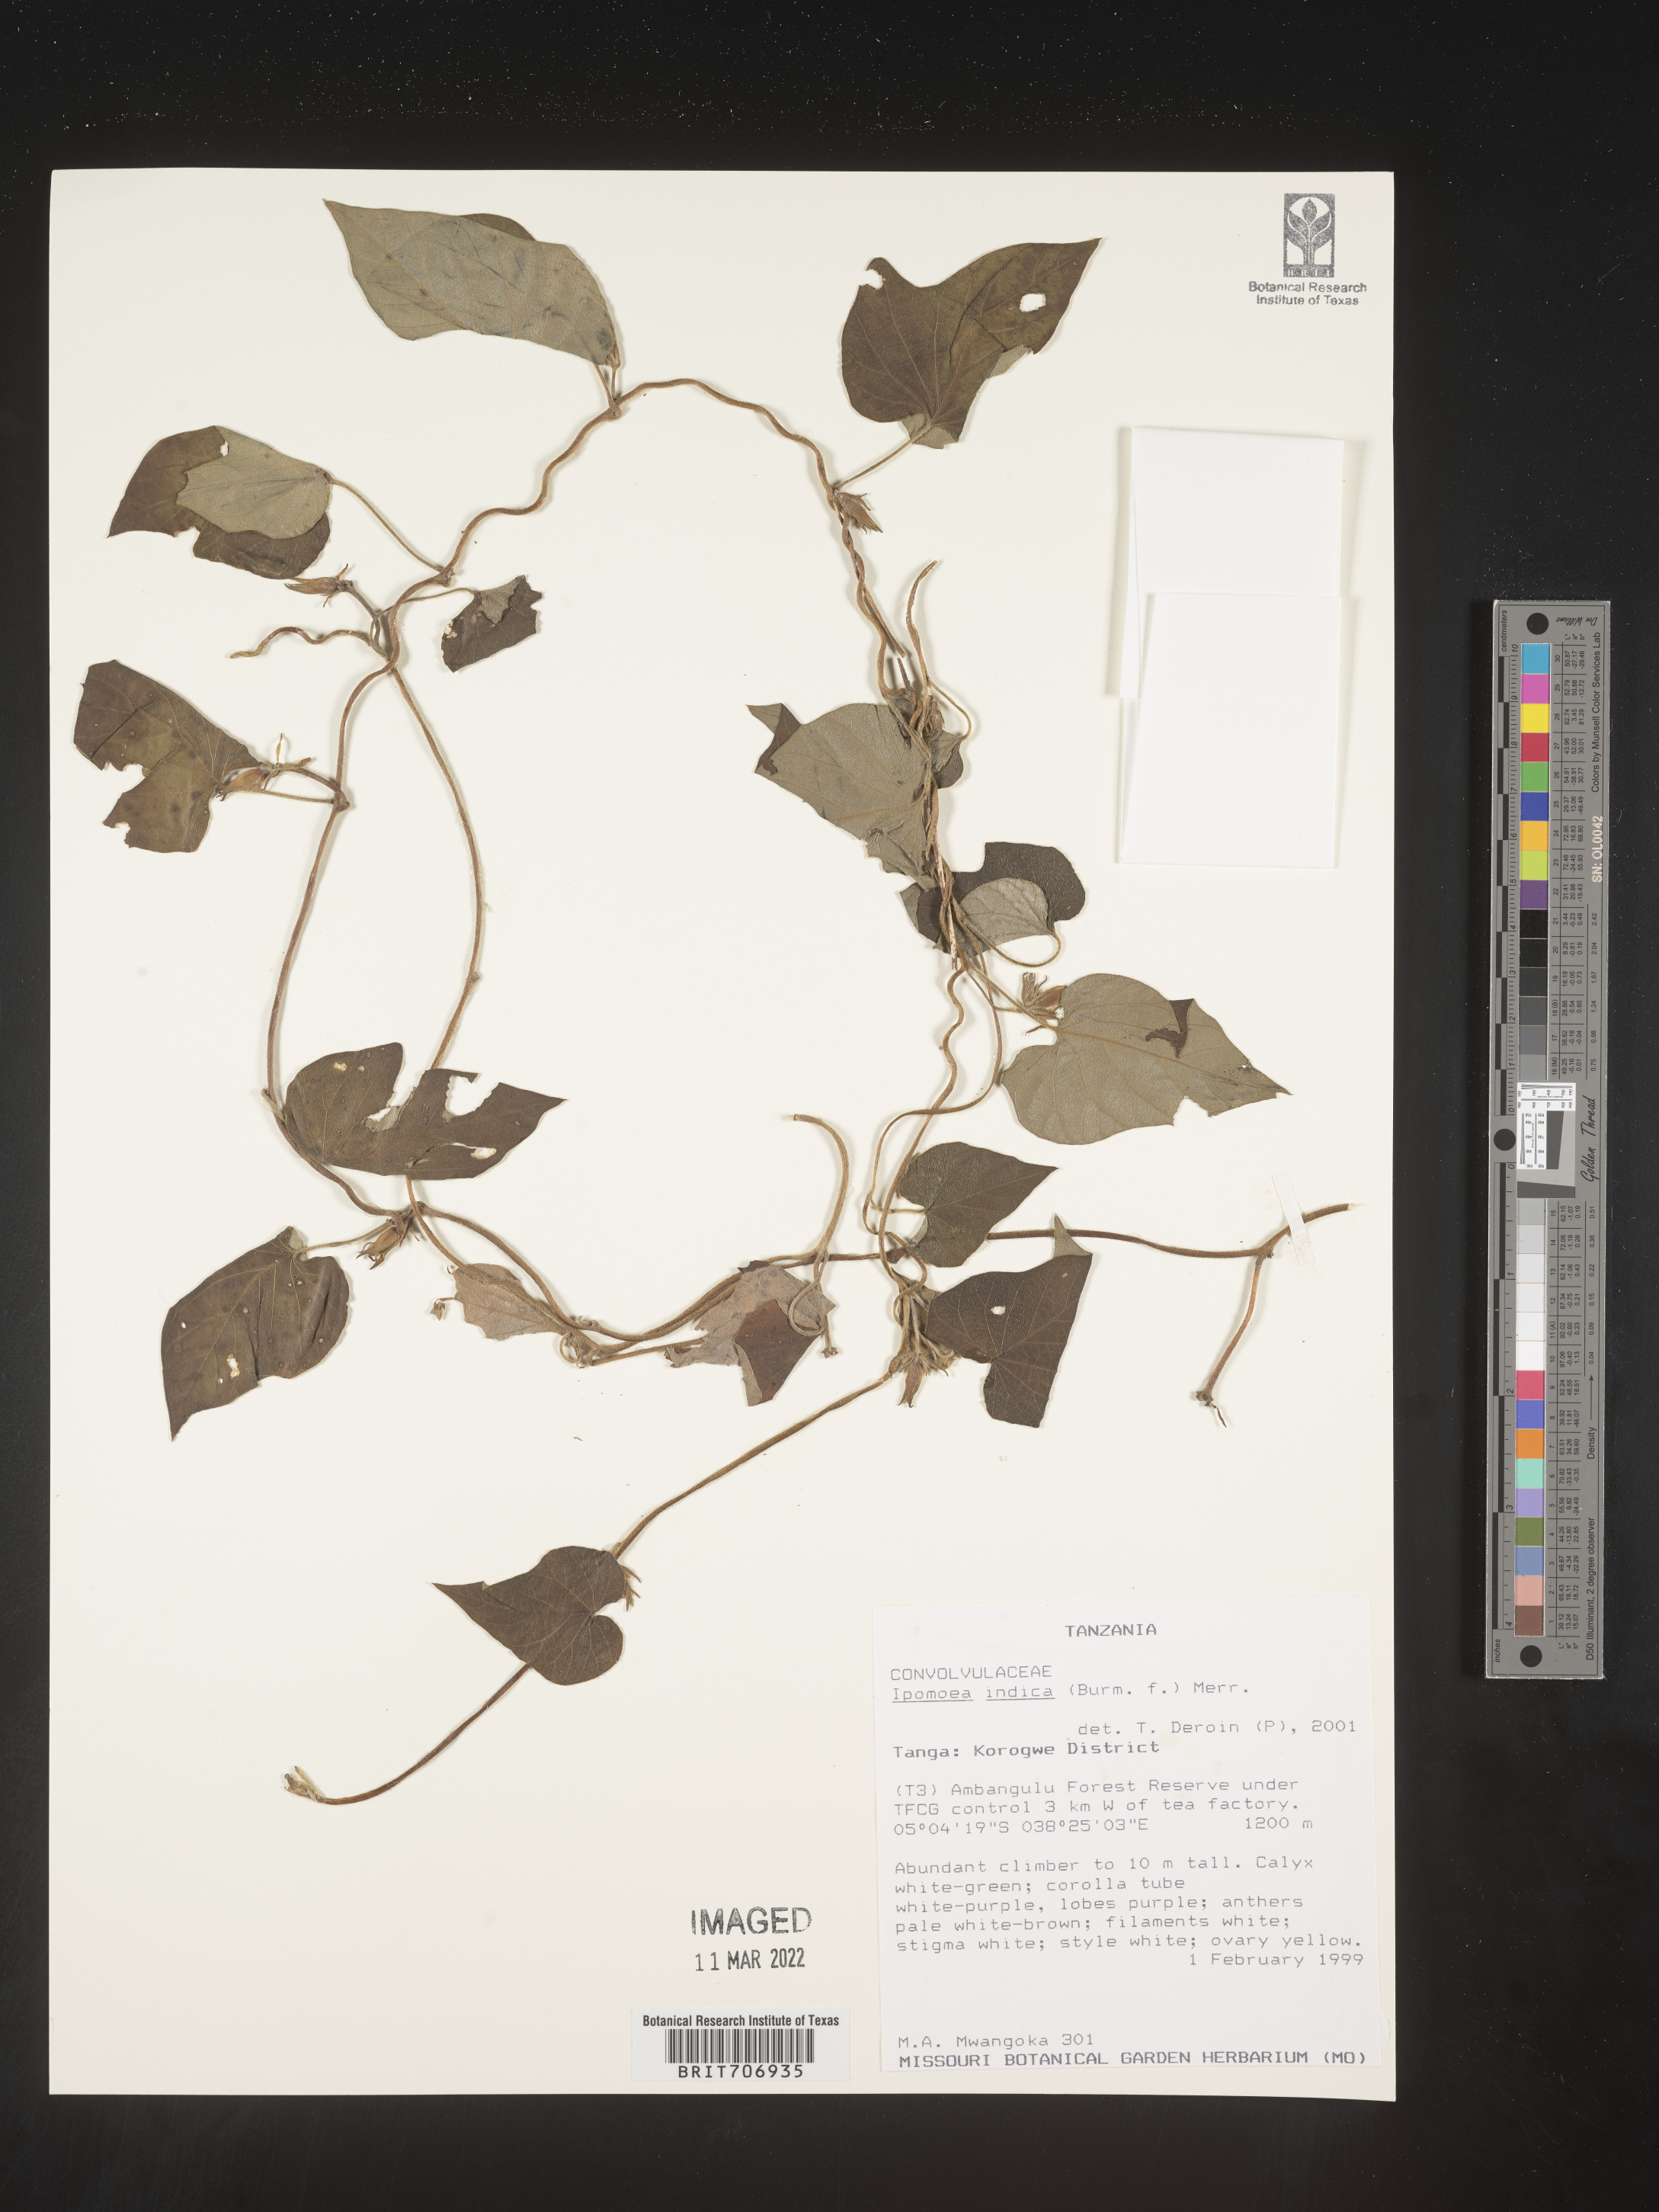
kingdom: Plantae
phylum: Tracheophyta
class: Magnoliopsida
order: Solanales
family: Convolvulaceae
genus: Ipomoea
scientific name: Ipomoea
